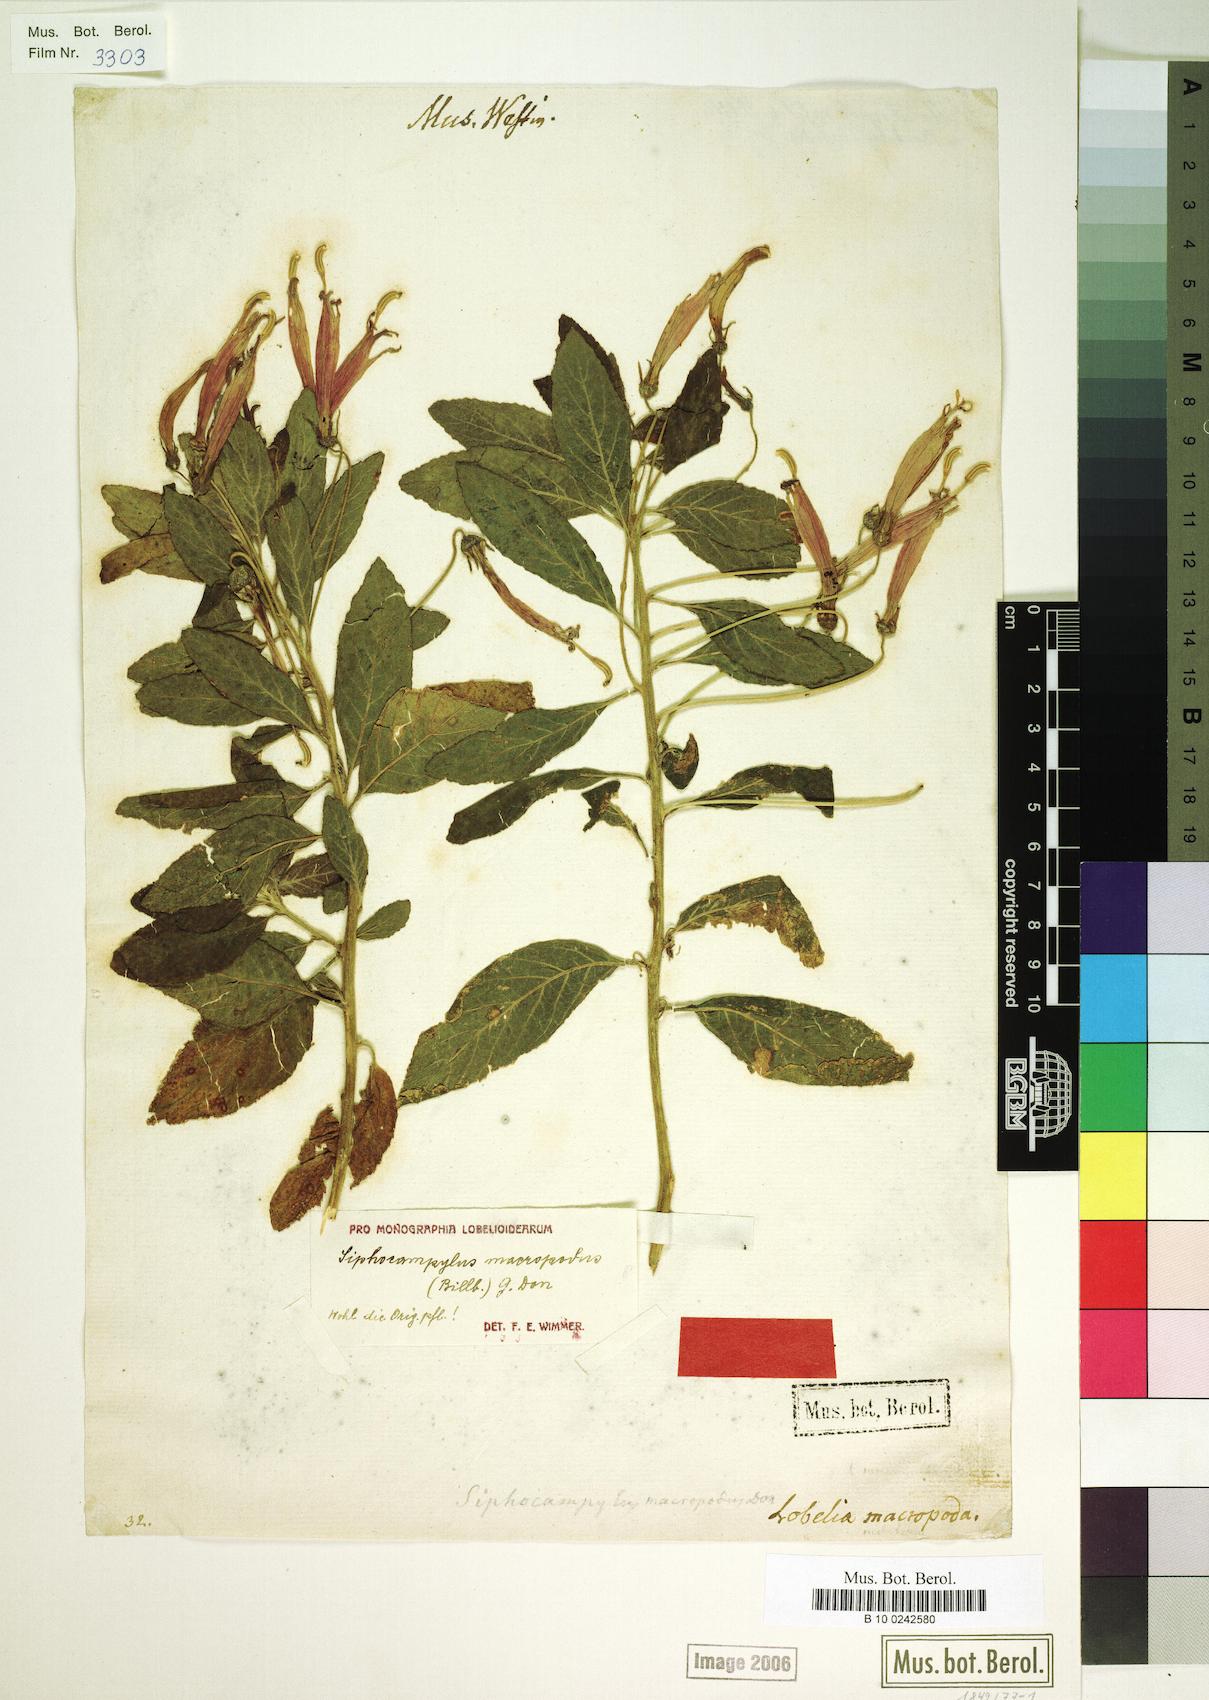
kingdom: Plantae
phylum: Tracheophyta
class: Magnoliopsida
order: Asterales
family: Campanulaceae
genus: Siphocampylus
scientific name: Siphocampylus macropodus
